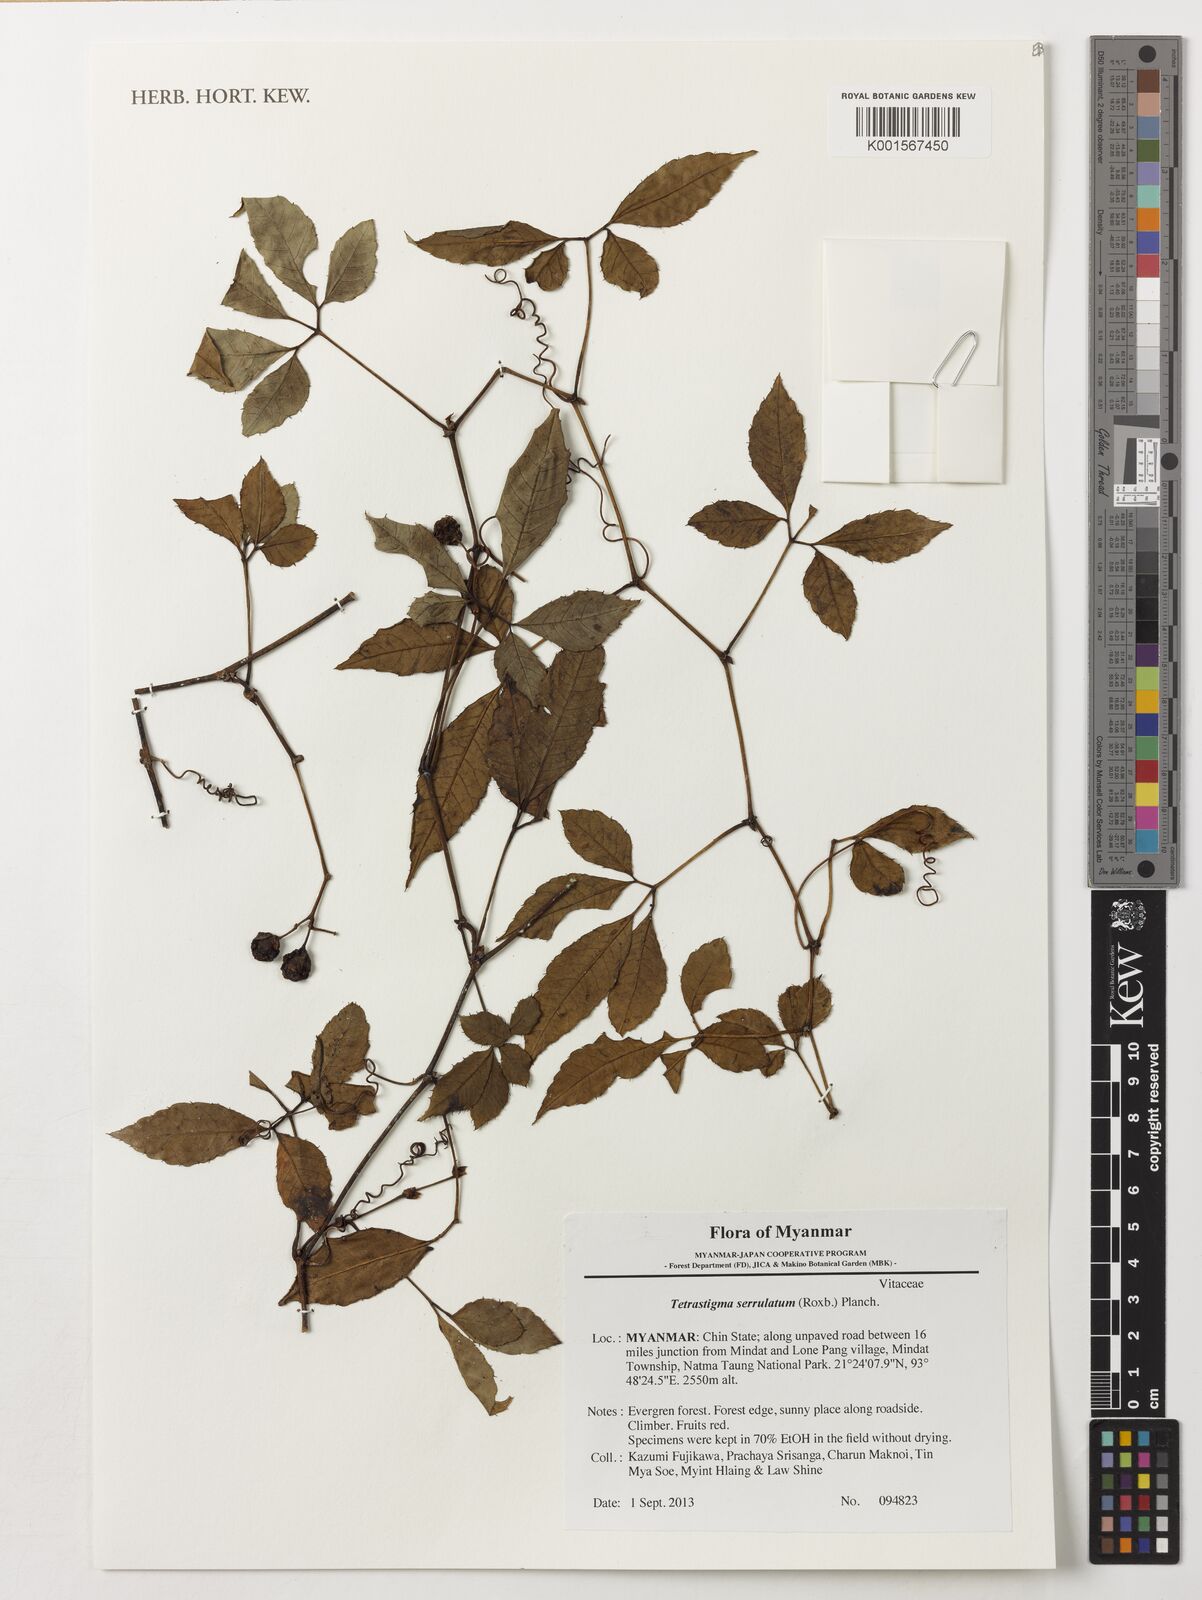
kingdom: Plantae
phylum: Tracheophyta
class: Magnoliopsida
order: Vitales
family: Vitaceae
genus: Tetrastigma
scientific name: Tetrastigma yunnanense
